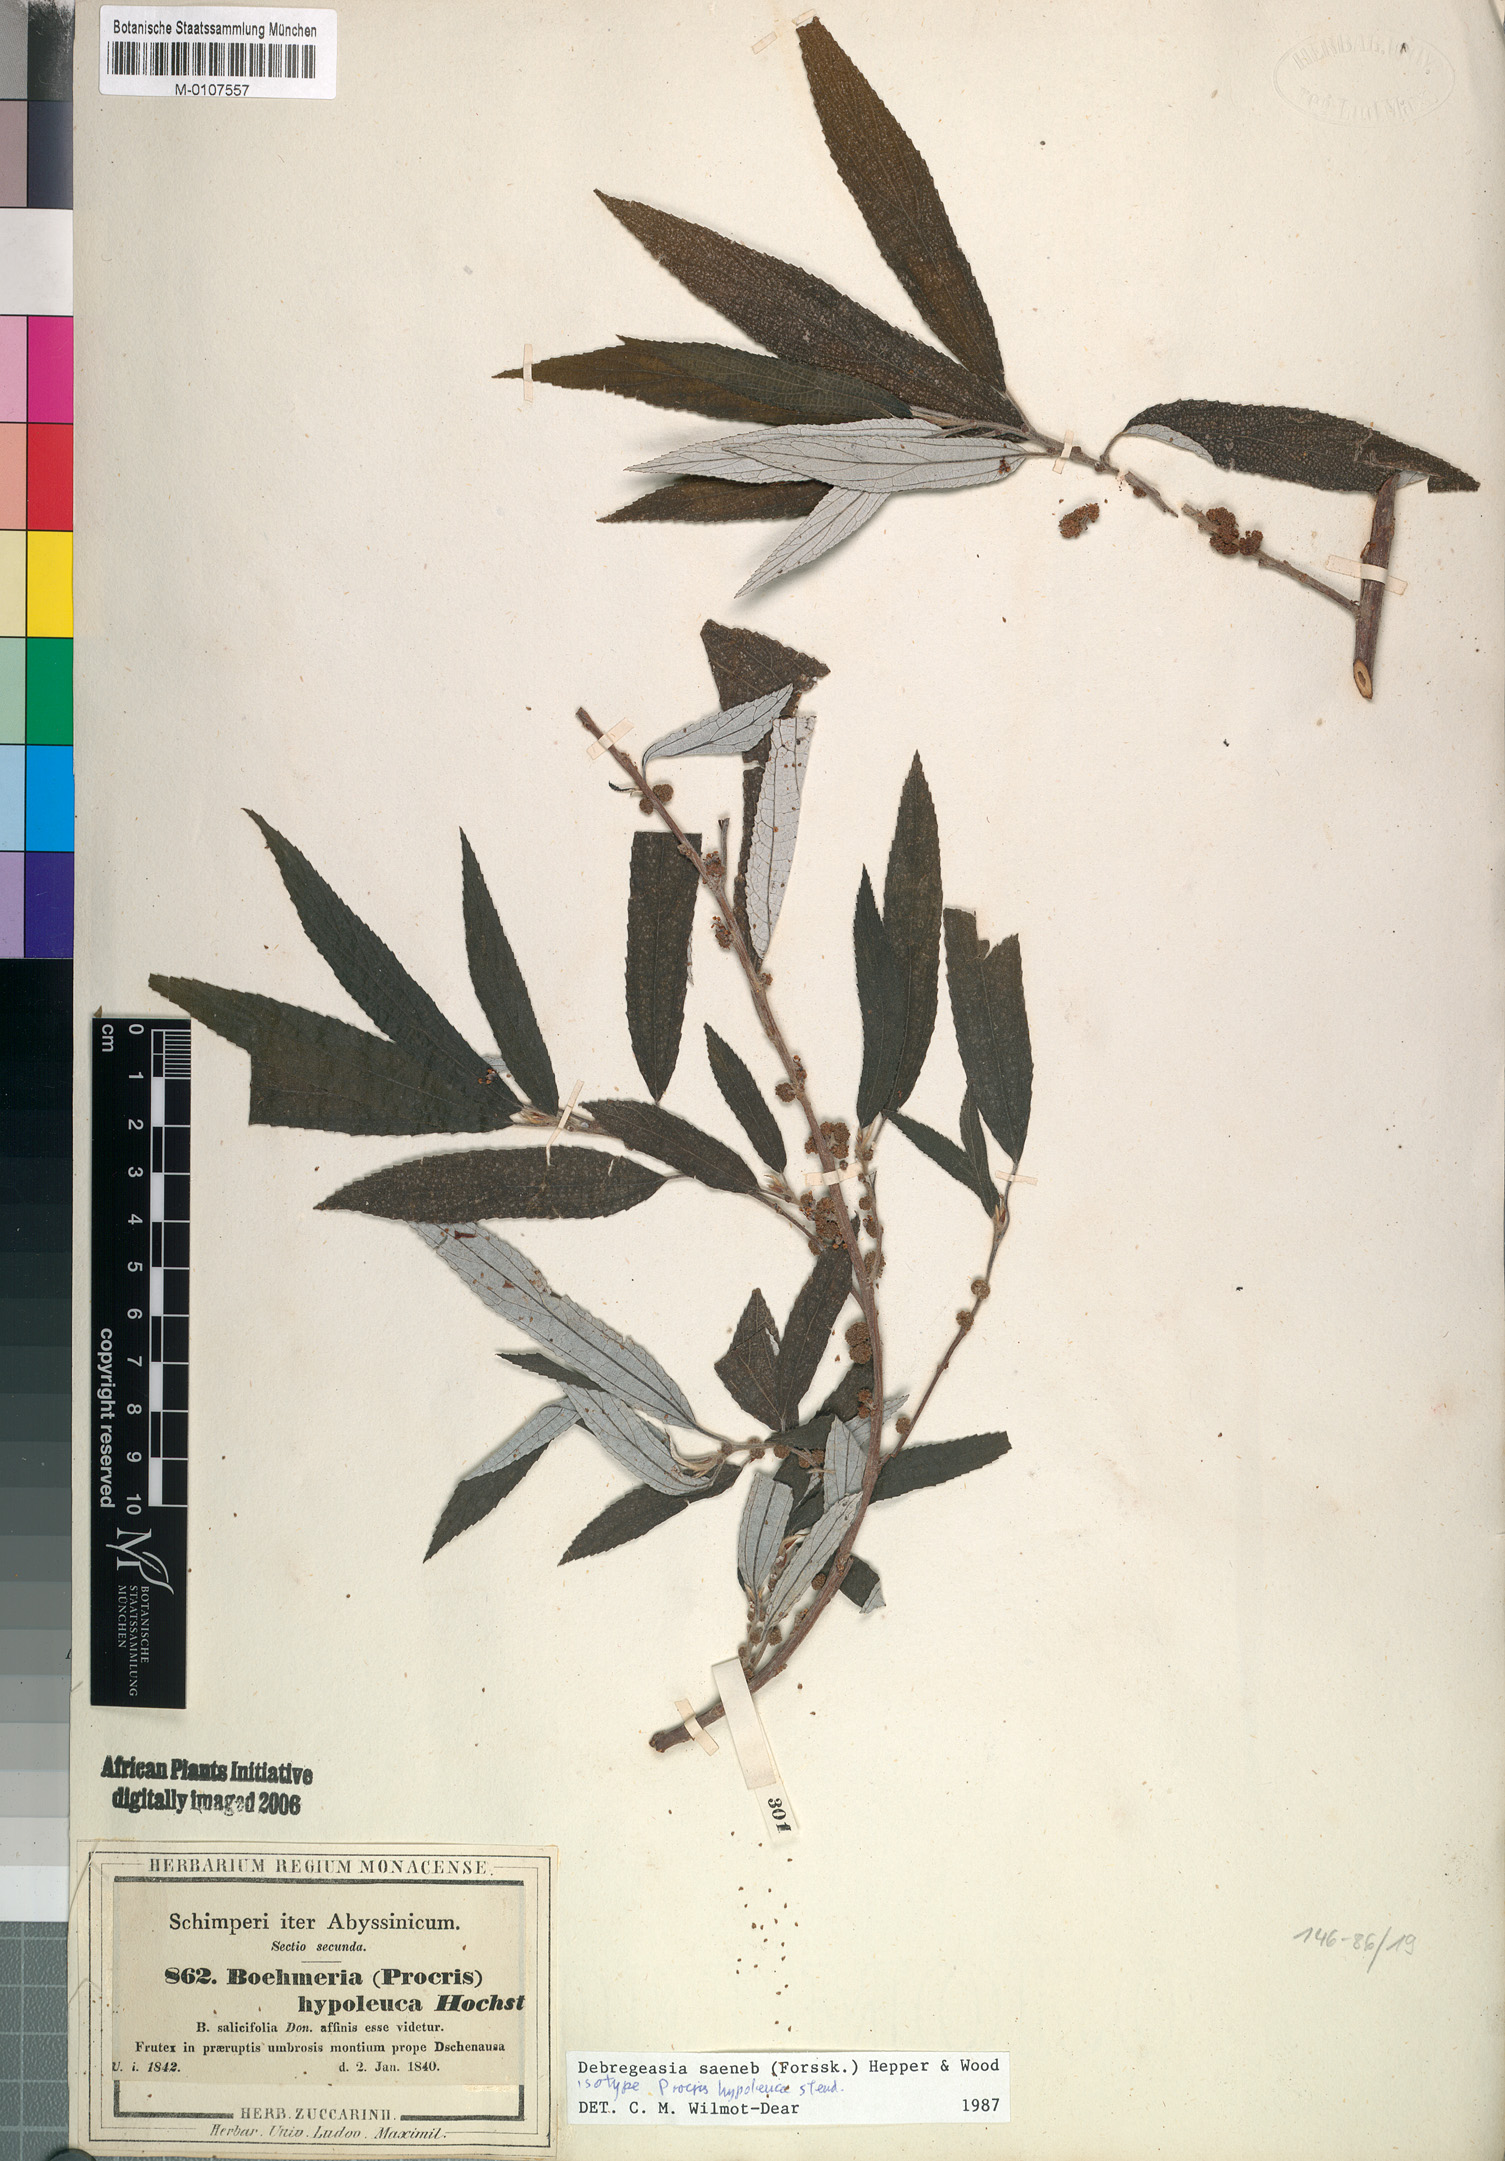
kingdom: Plantae
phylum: Tracheophyta
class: Magnoliopsida
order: Rosales
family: Urticaceae
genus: Debregeasia
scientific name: Debregeasia saeneb
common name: Himalayan wild rhea
